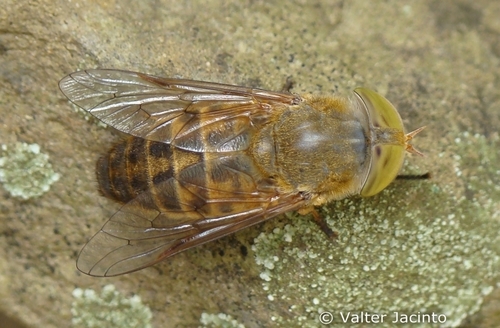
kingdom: Animalia
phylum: Arthropoda
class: Insecta
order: Diptera
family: Tabanidae
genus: Atylotus
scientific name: Atylotus quadrifarius
